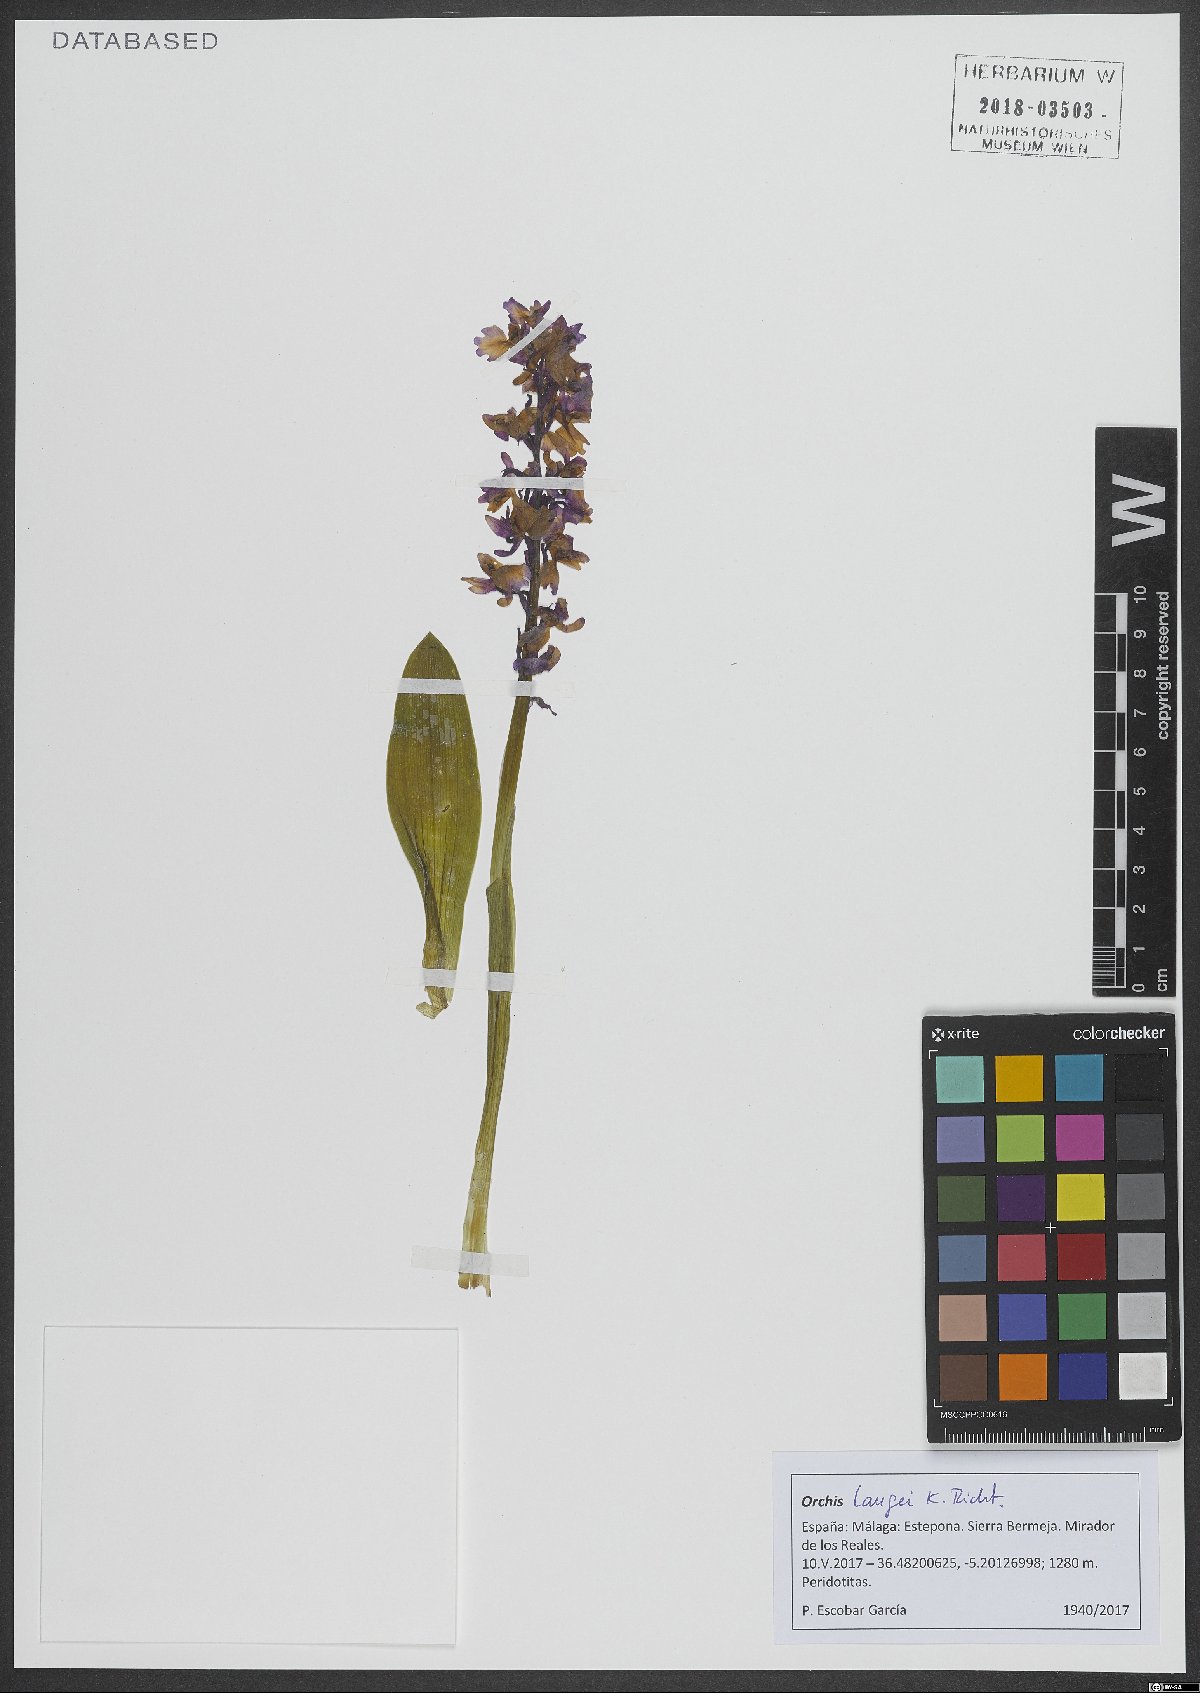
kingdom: Plantae
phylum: Tracheophyta
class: Liliopsida
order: Asparagales
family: Orchidaceae
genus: Orchis
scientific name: Orchis mascula
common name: Early-purple orchid
